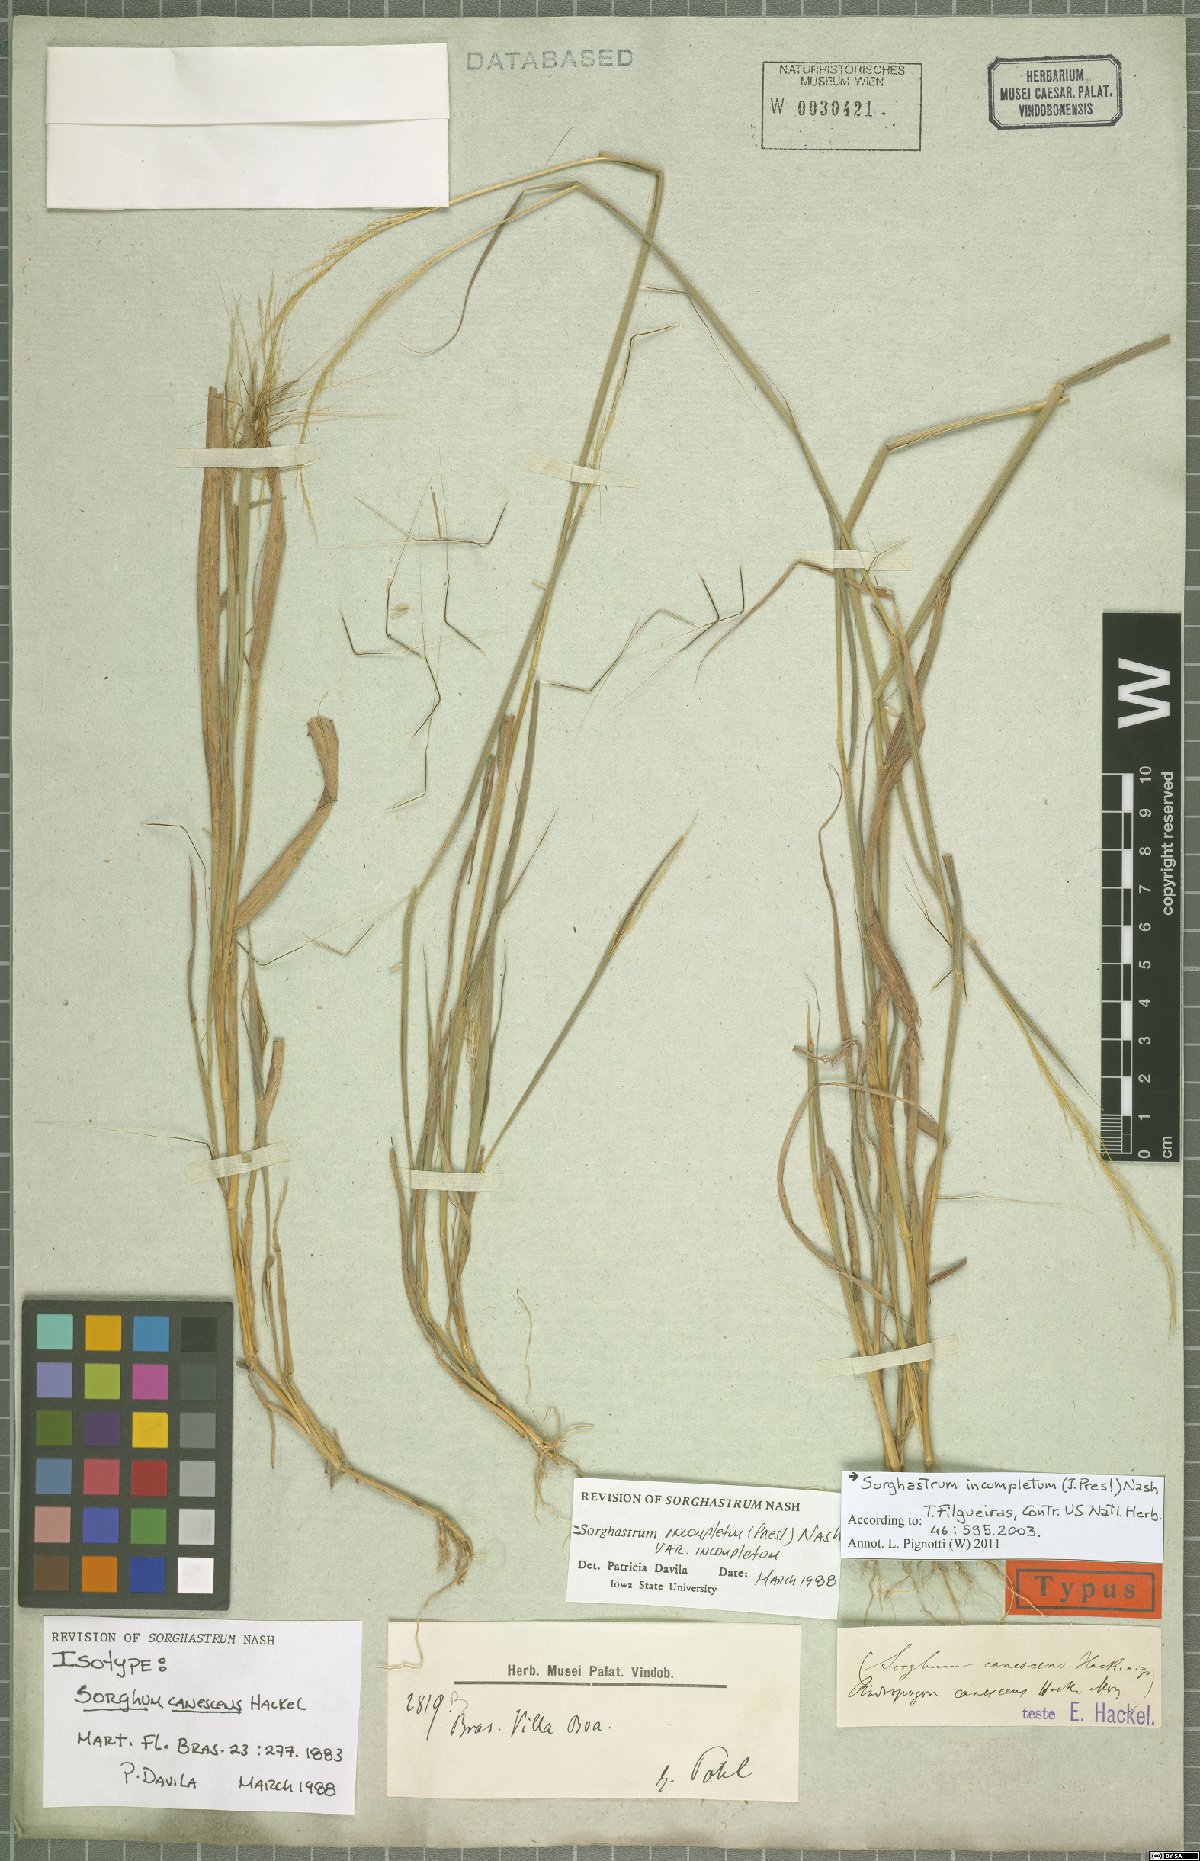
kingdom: Plantae
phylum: Tracheophyta
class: Liliopsida
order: Poales
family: Poaceae
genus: Sorghastrum
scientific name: Sorghastrum incompletum
